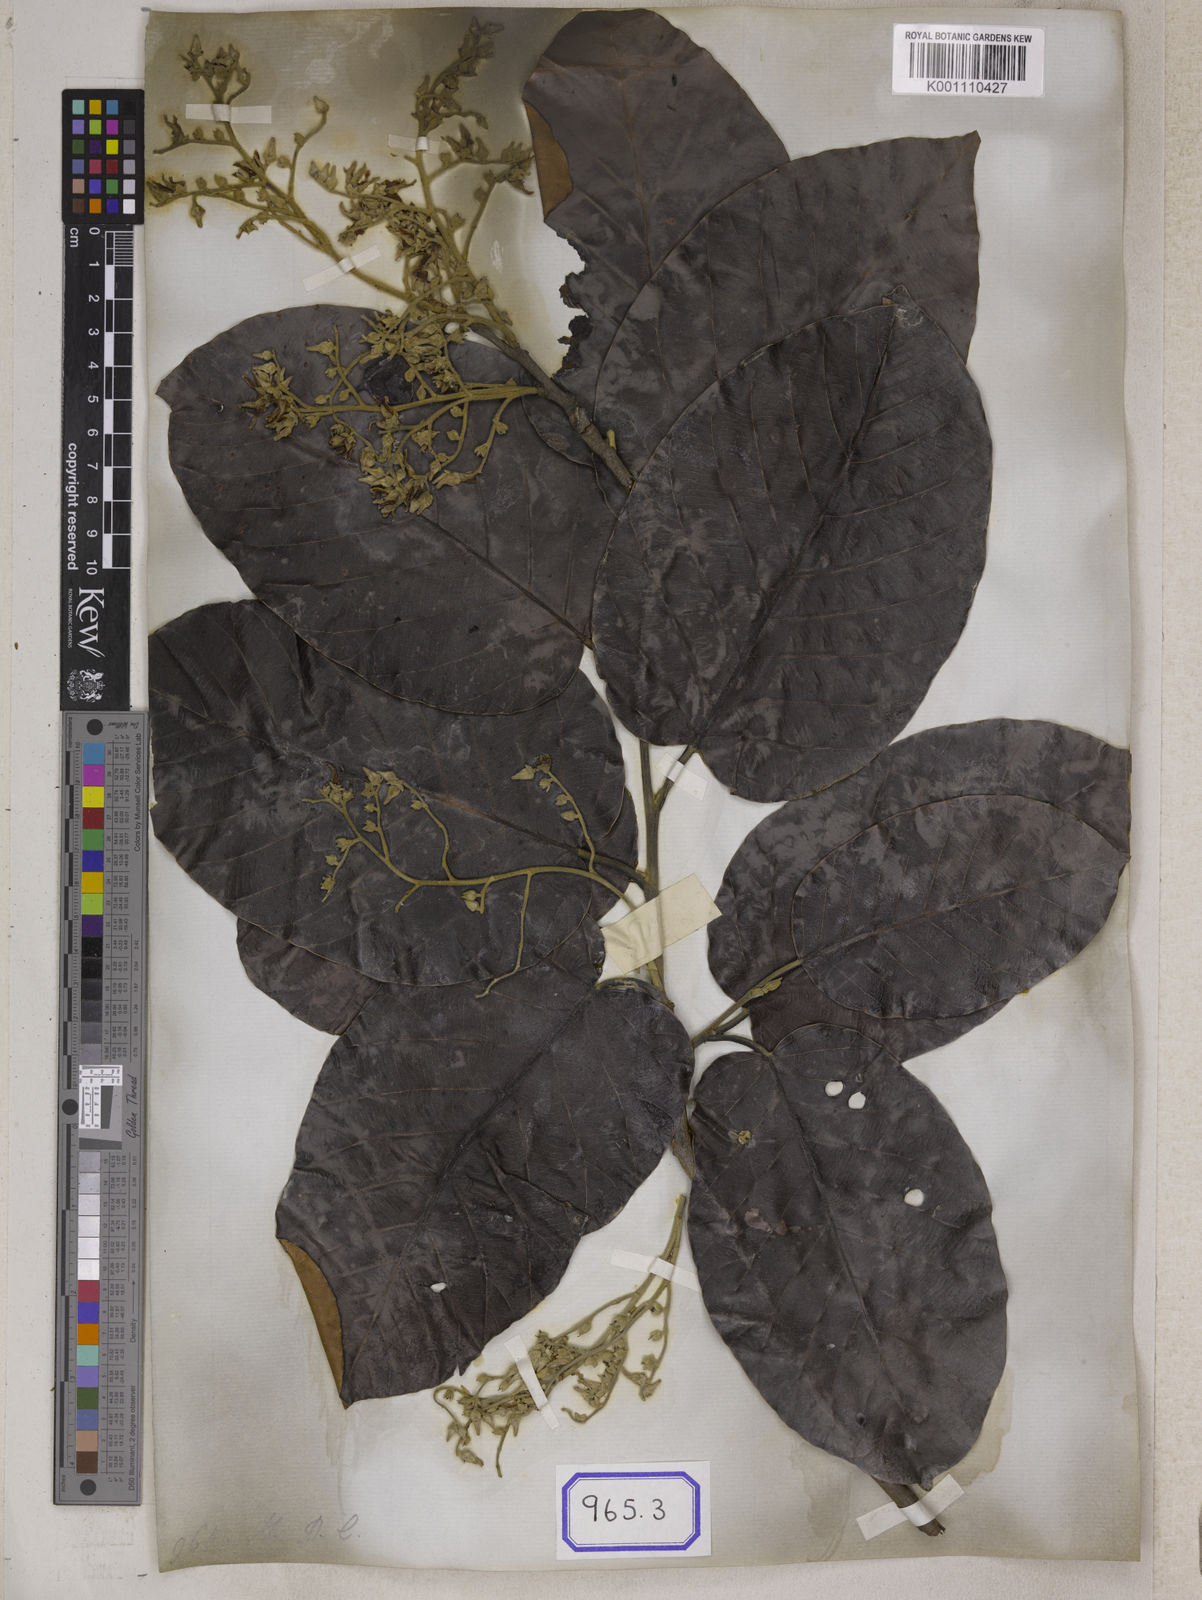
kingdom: Plantae
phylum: Tracheophyta
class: Magnoliopsida
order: Malvales
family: Dipterocarpaceae
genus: Shorea
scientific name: Shorea
